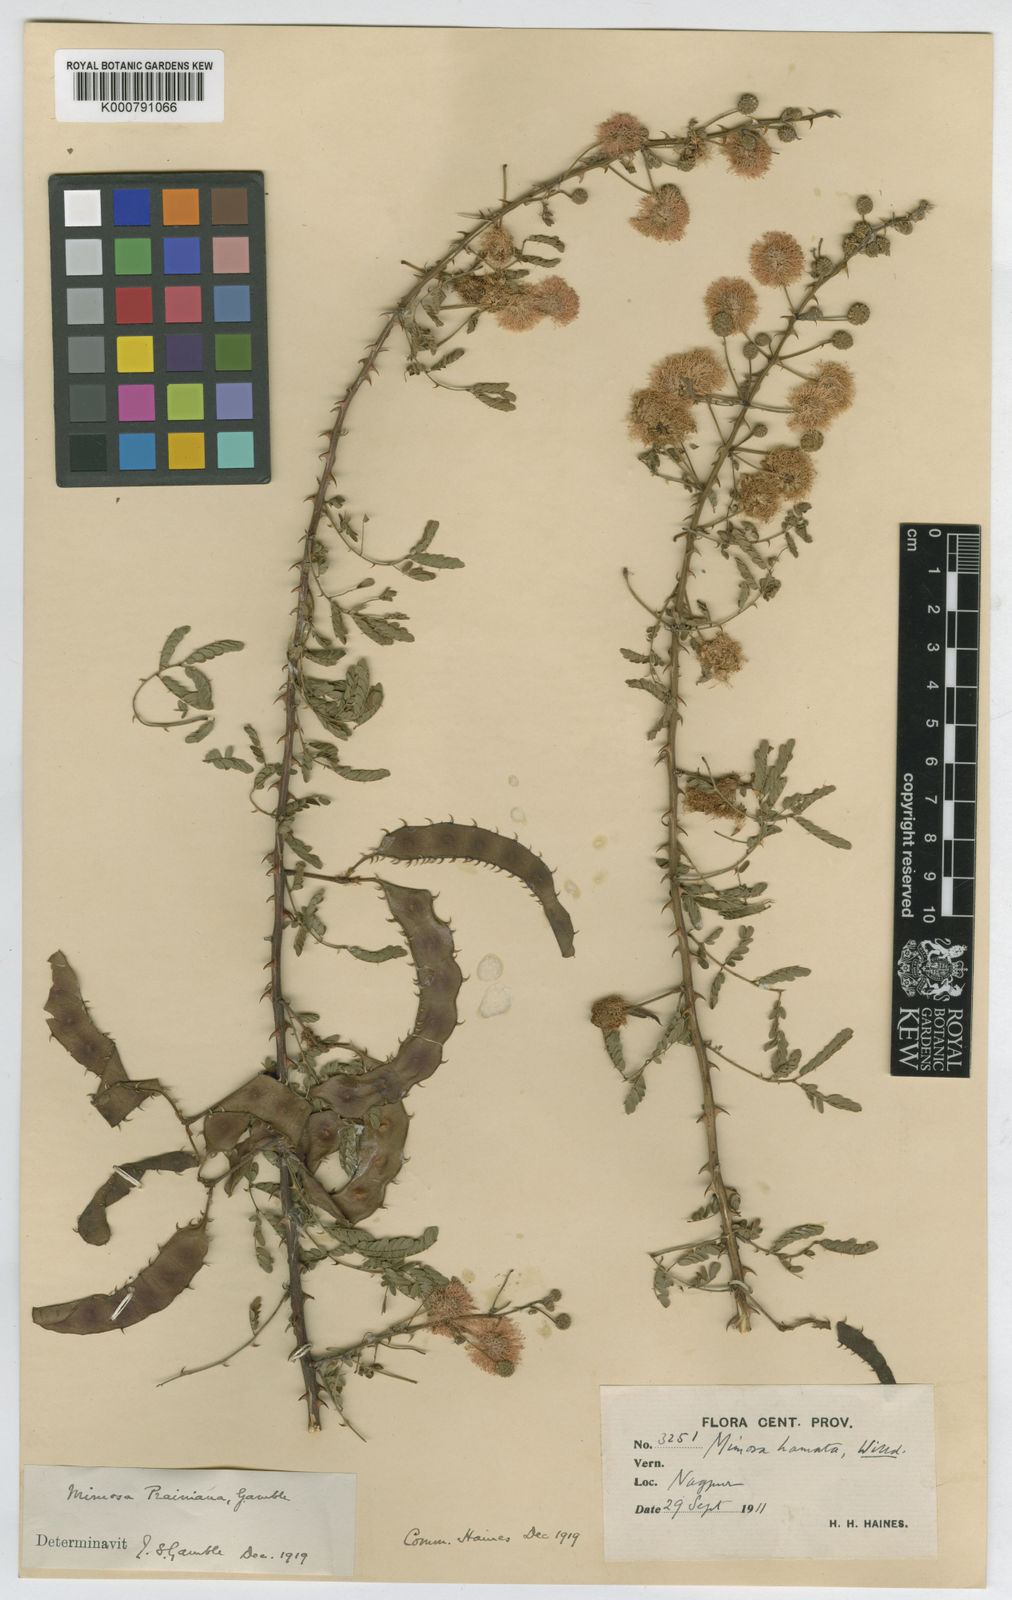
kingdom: Plantae
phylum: Tracheophyta
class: Magnoliopsida
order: Fabales
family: Fabaceae
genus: Mimosa
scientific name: Mimosa prainiana
